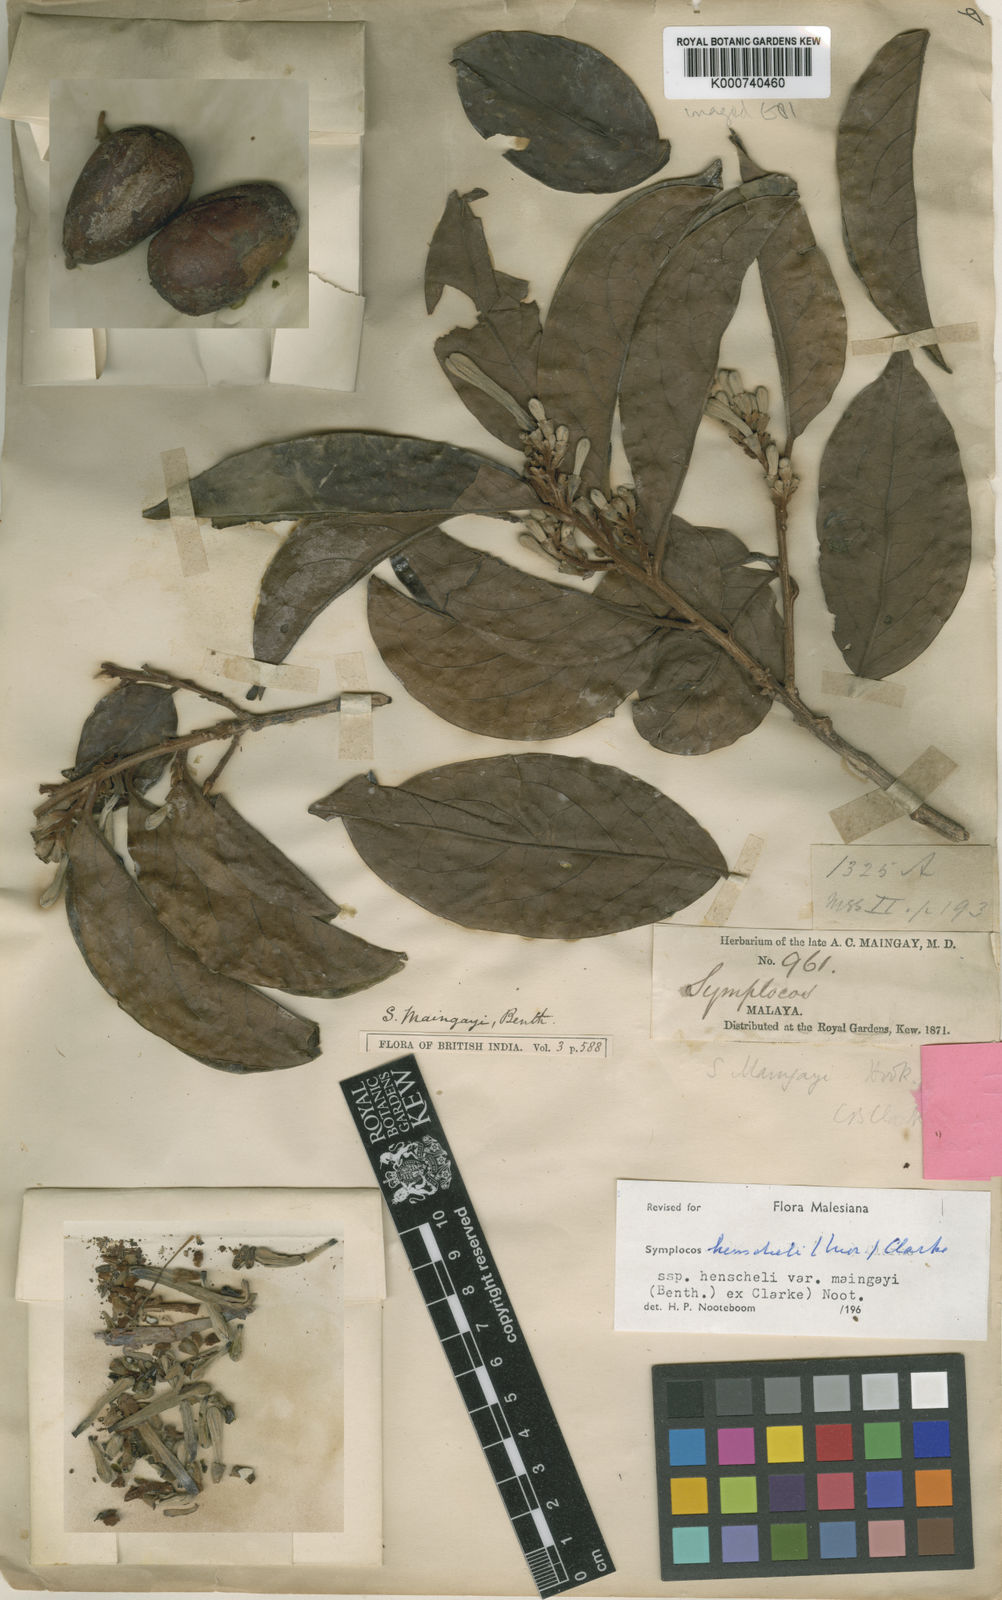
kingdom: Plantae
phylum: Tracheophyta
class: Magnoliopsida
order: Ericales
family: Symplocaceae
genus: Symplocos
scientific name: Symplocos henschelii
